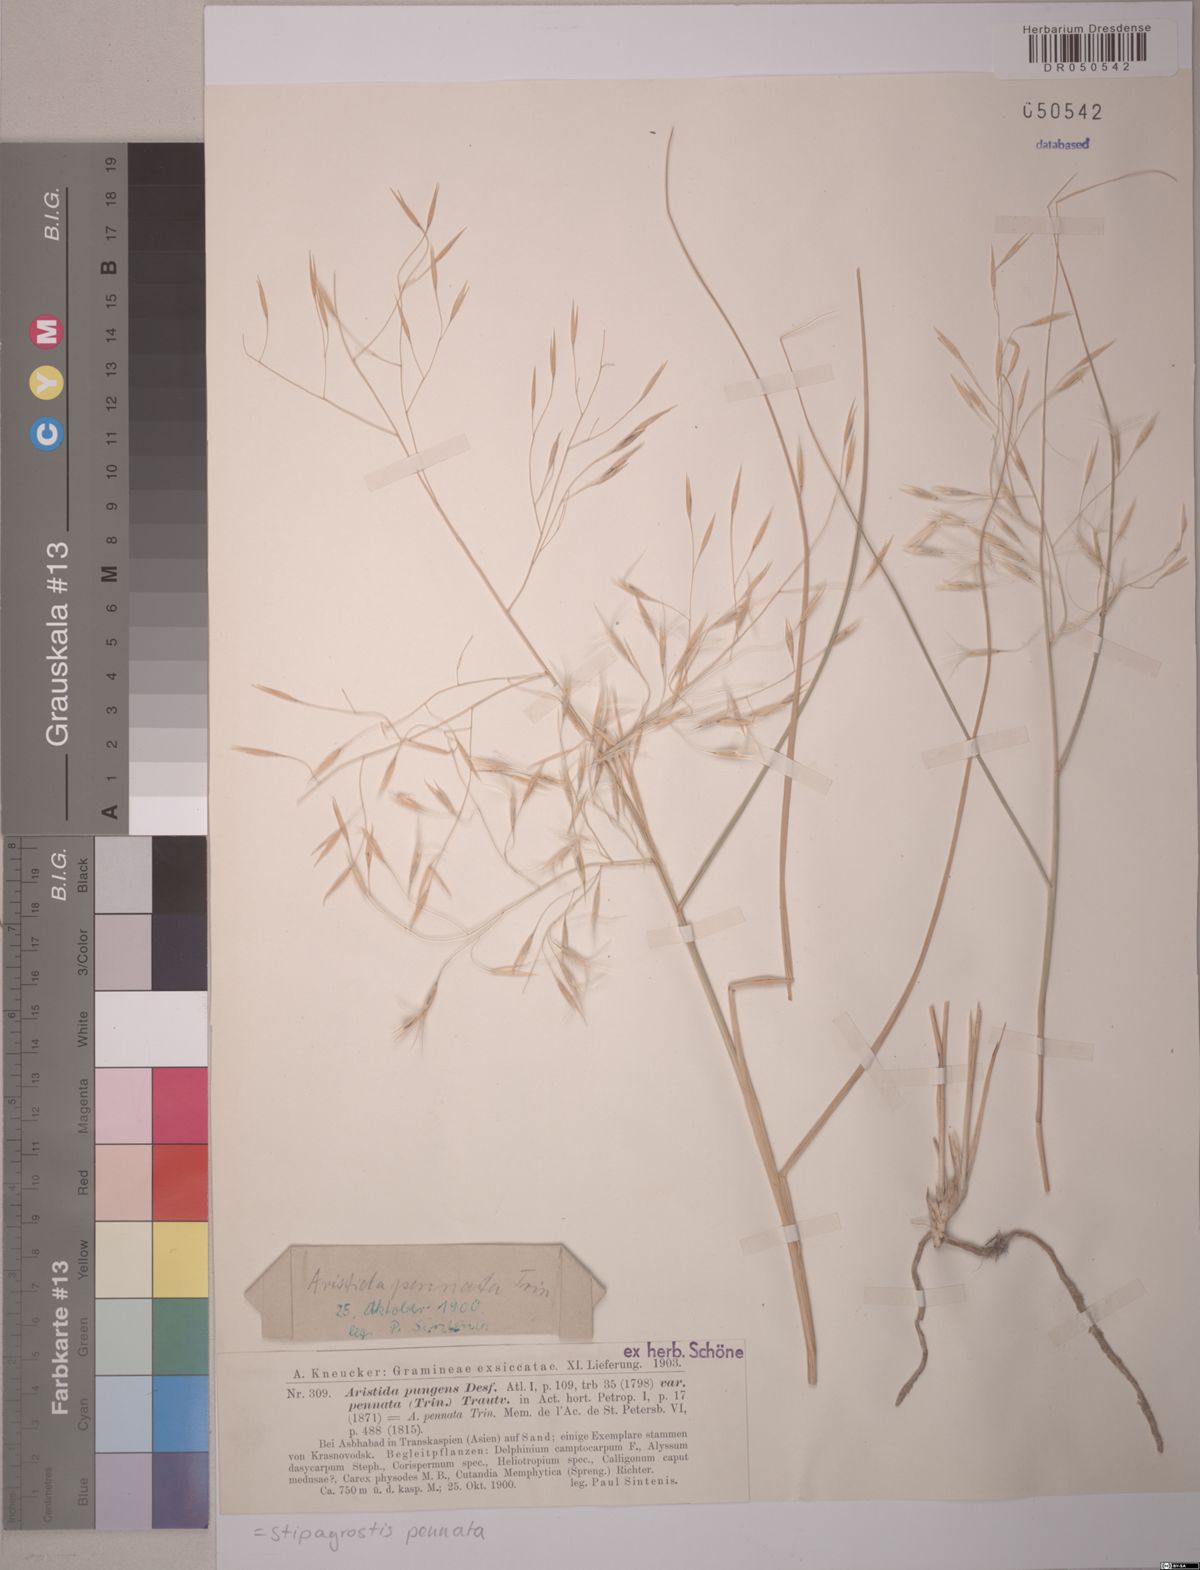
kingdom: Plantae
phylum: Tracheophyta
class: Liliopsida
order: Poales
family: Poaceae
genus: Stipagrostis
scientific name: Stipagrostis pennata
